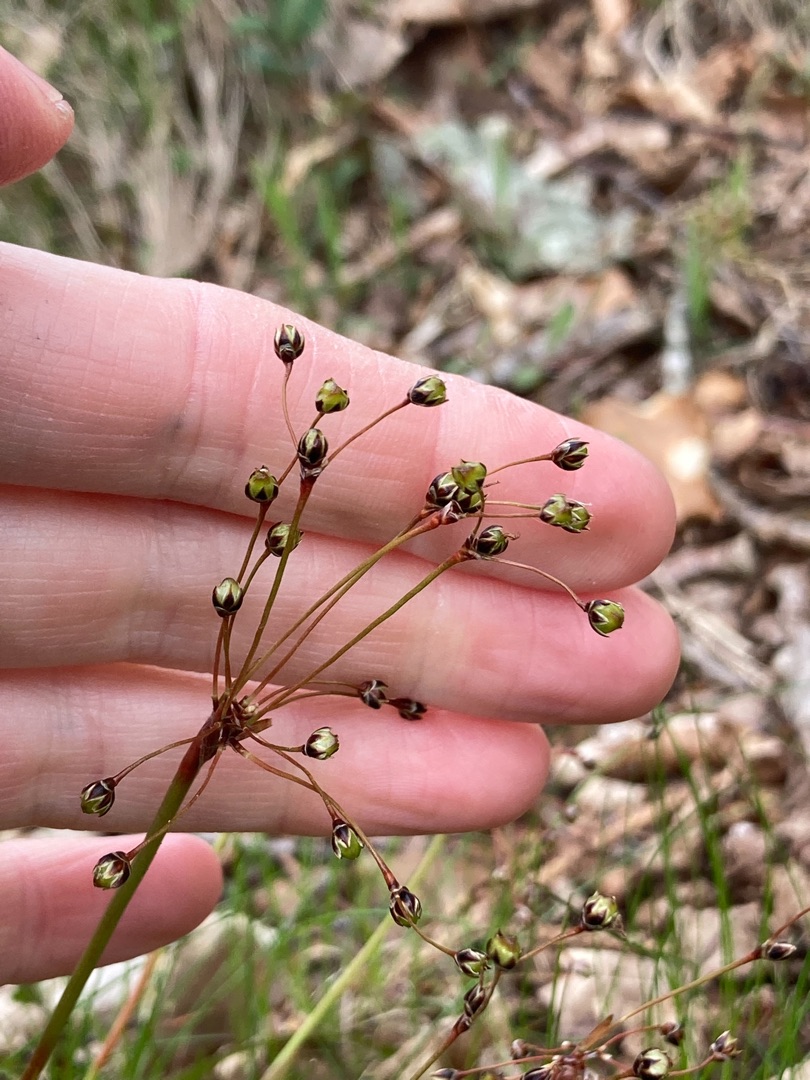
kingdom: Plantae
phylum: Tracheophyta
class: Liliopsida
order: Poales
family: Juncaceae
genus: Luzula
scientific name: Luzula pilosa
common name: Håret frytle
